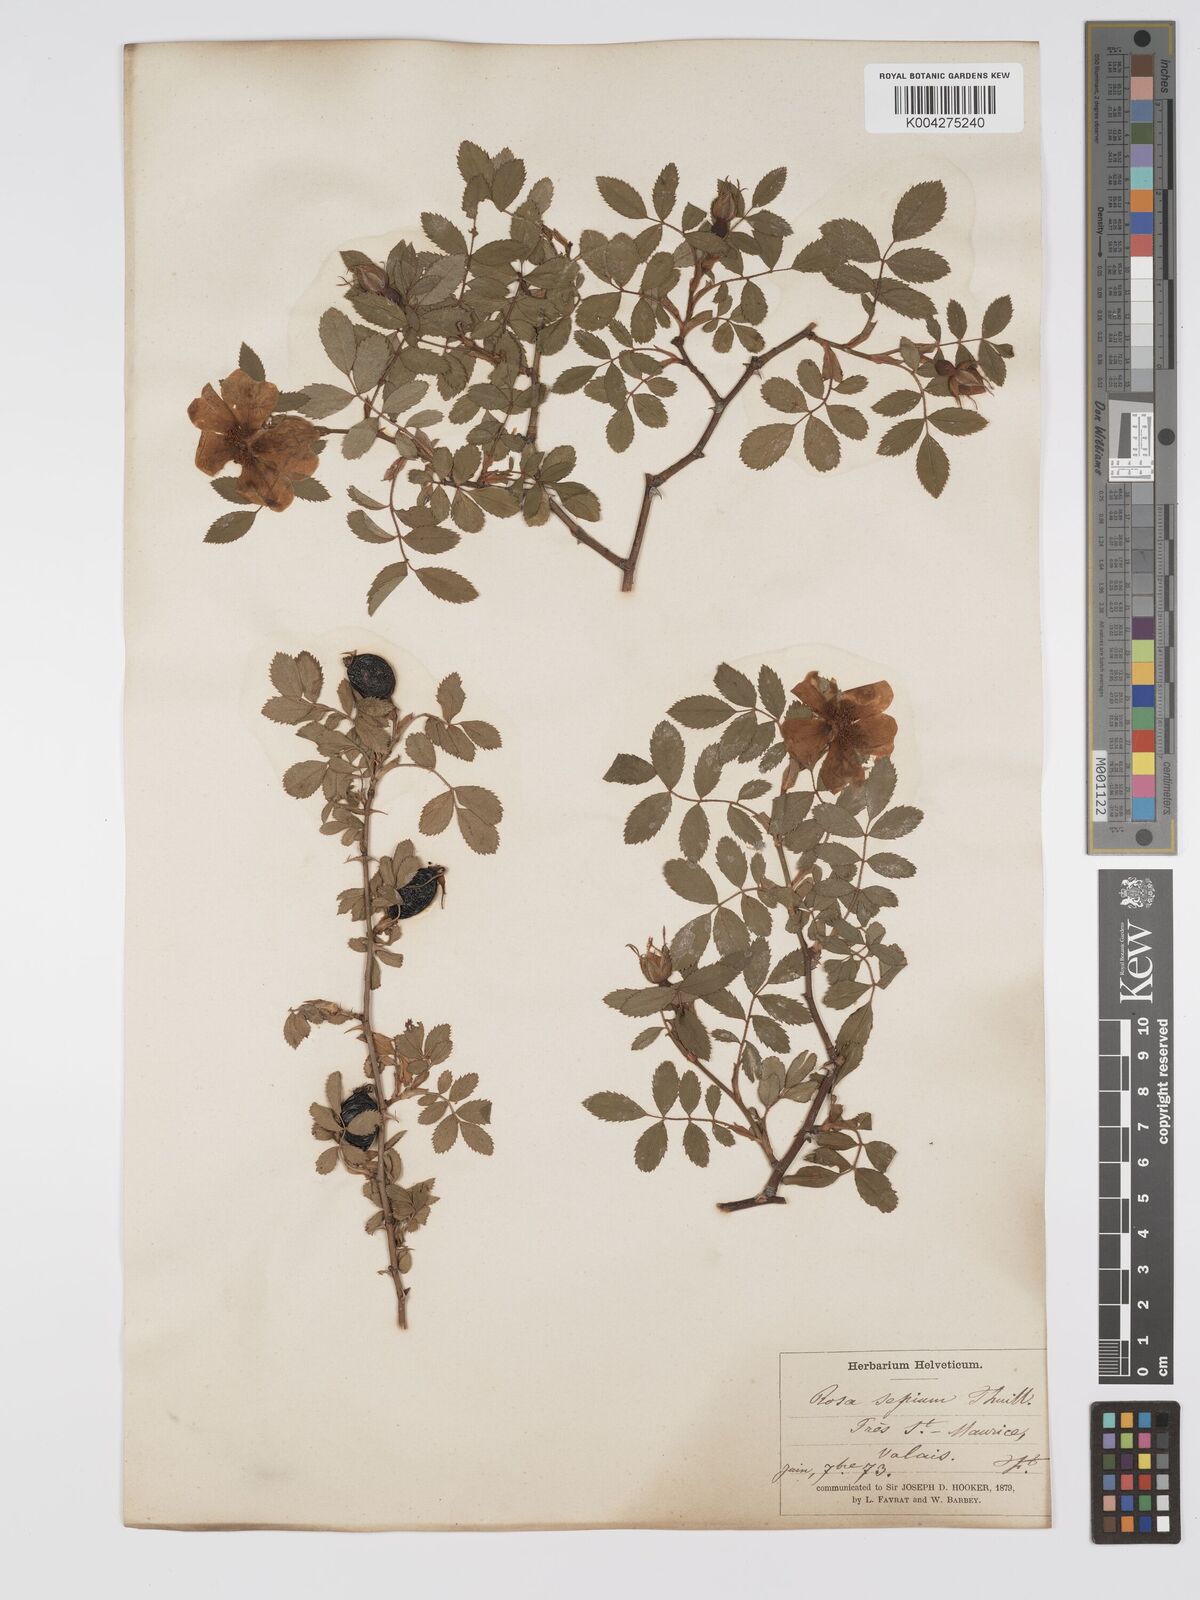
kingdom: Plantae
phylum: Tracheophyta
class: Magnoliopsida
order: Rosales
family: Rosaceae
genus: Rosa
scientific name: Rosa
